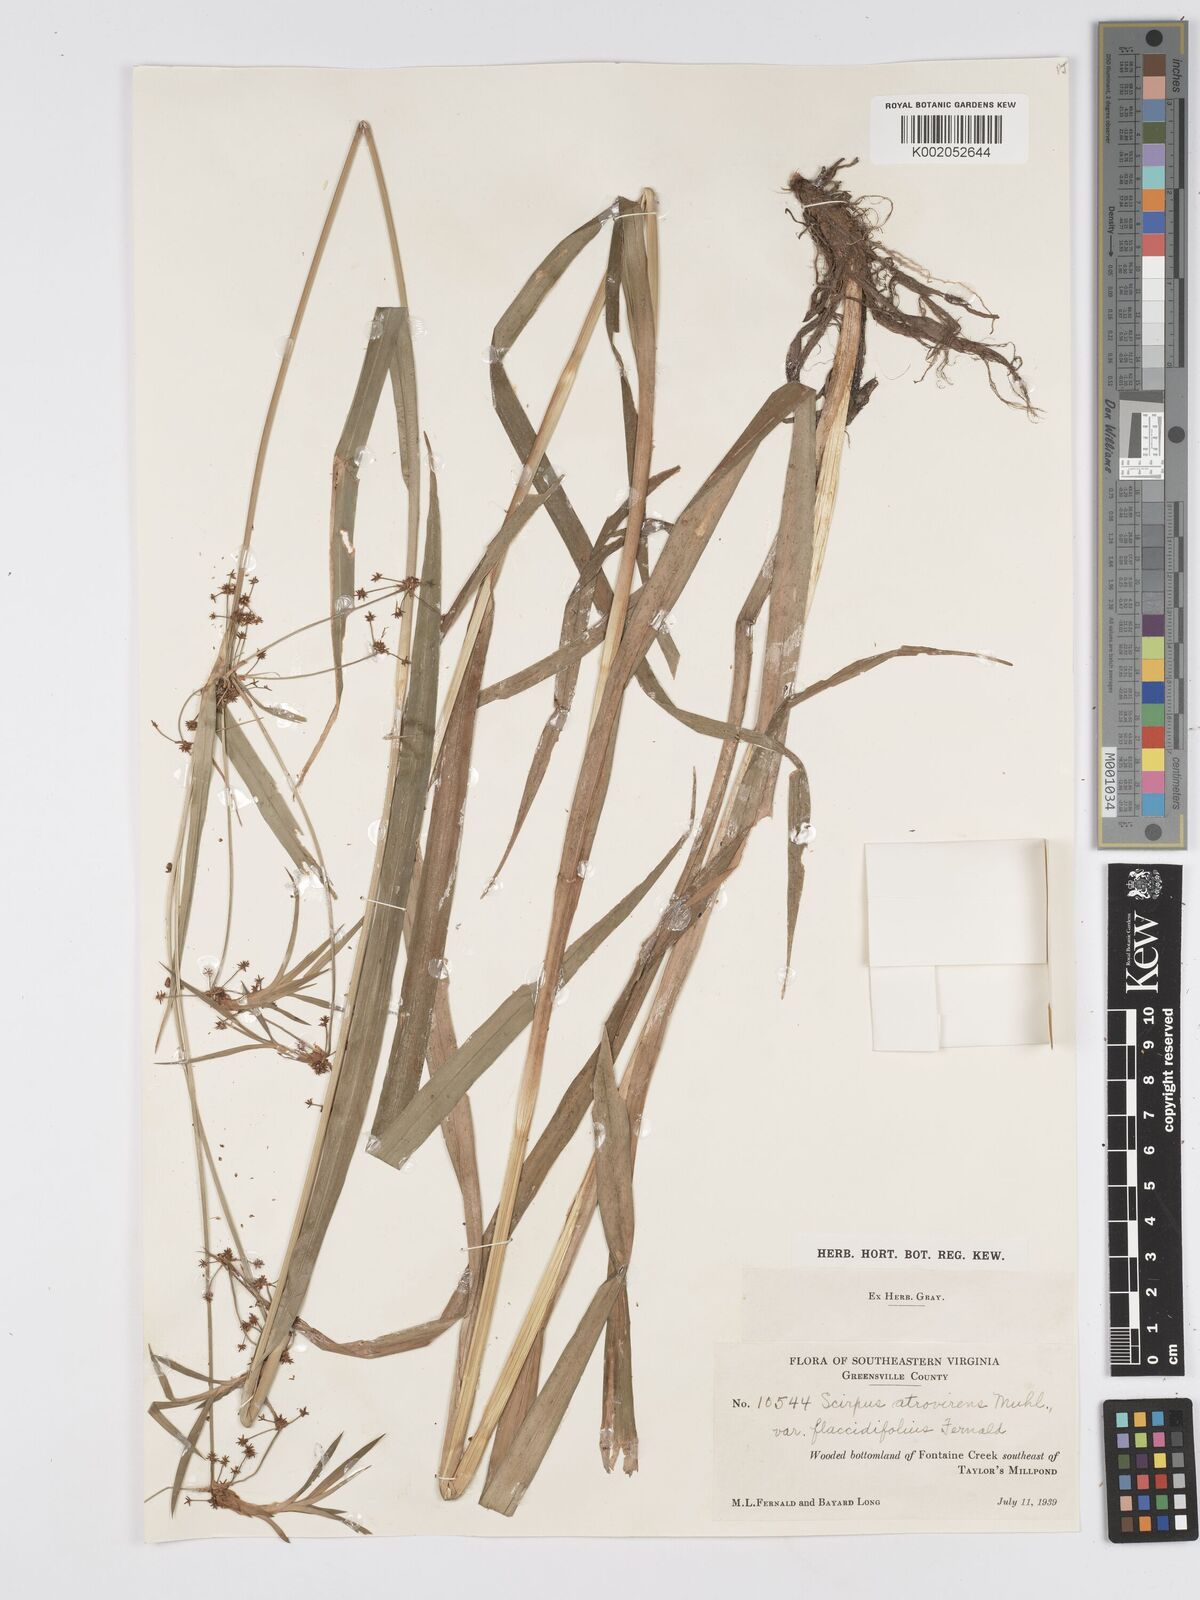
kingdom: Plantae
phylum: Tracheophyta
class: Liliopsida
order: Poales
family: Cyperaceae
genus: Scirpus
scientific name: Scirpus atrovirens
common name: Black bulrush
